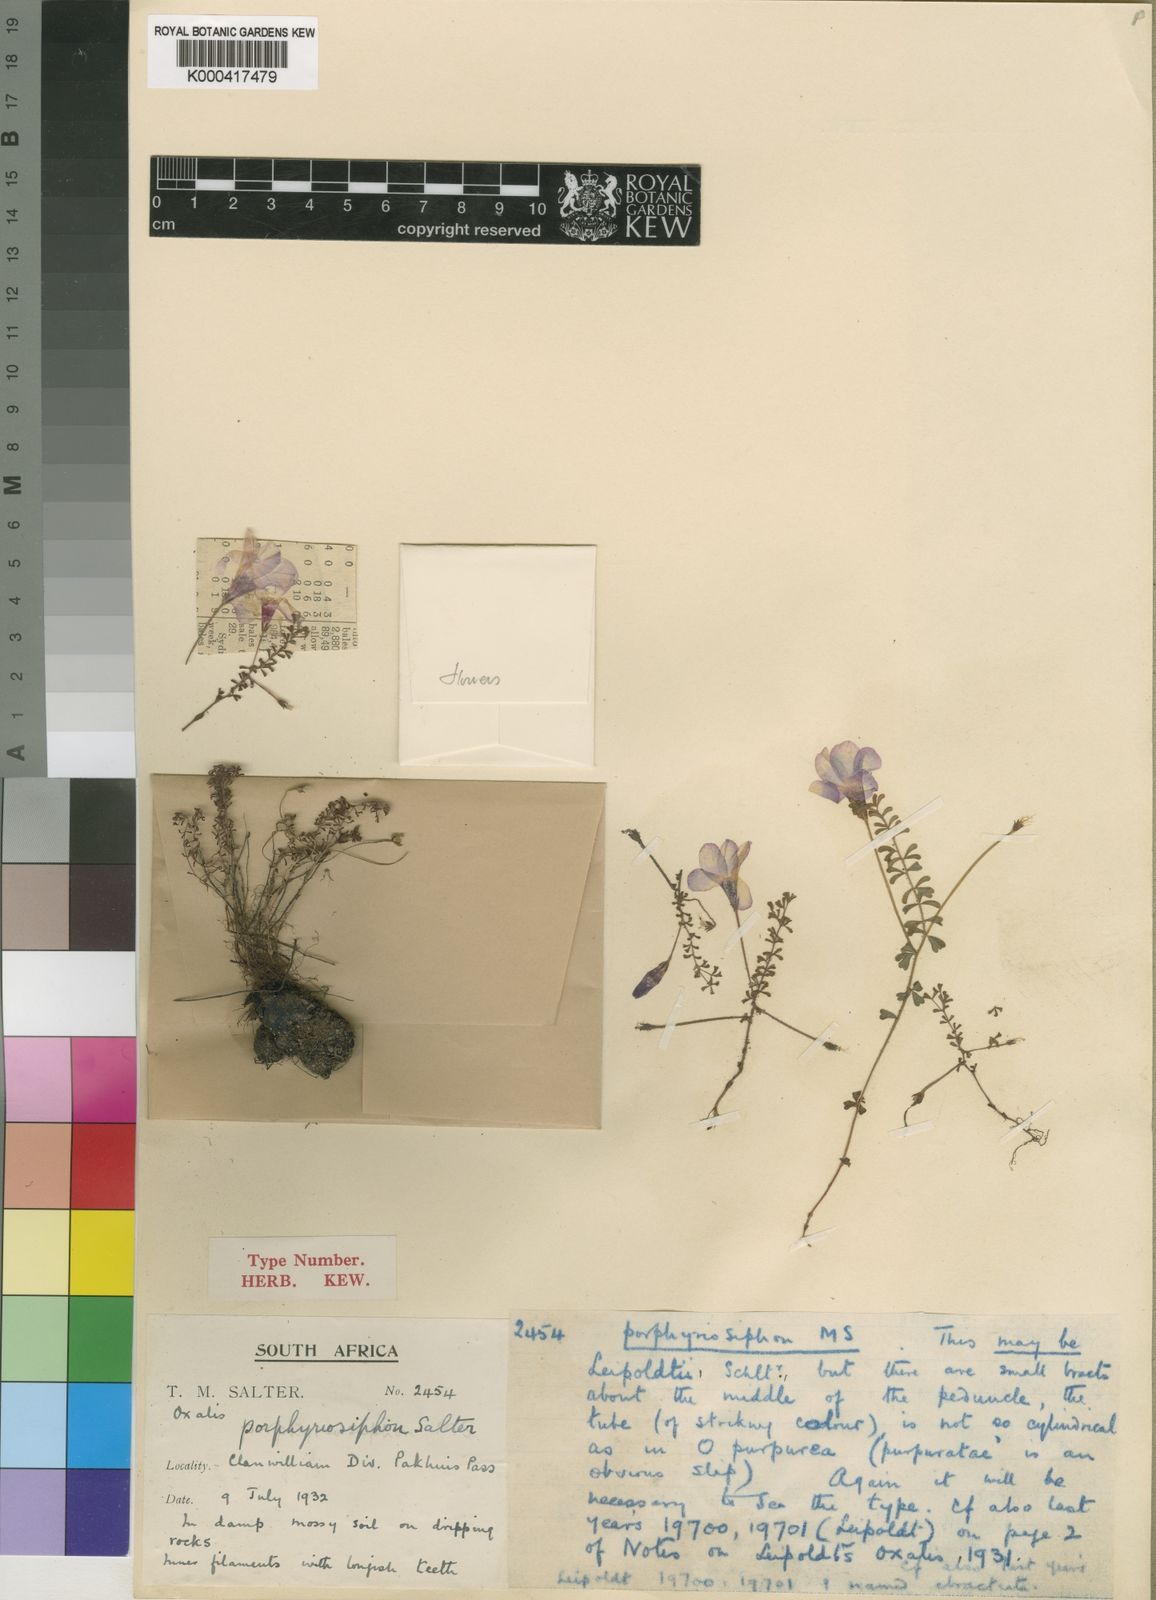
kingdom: Plantae
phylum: Tracheophyta
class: Magnoliopsida
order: Oxalidales
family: Oxalidaceae
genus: Oxalis
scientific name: Oxalis porphyriosiphon
